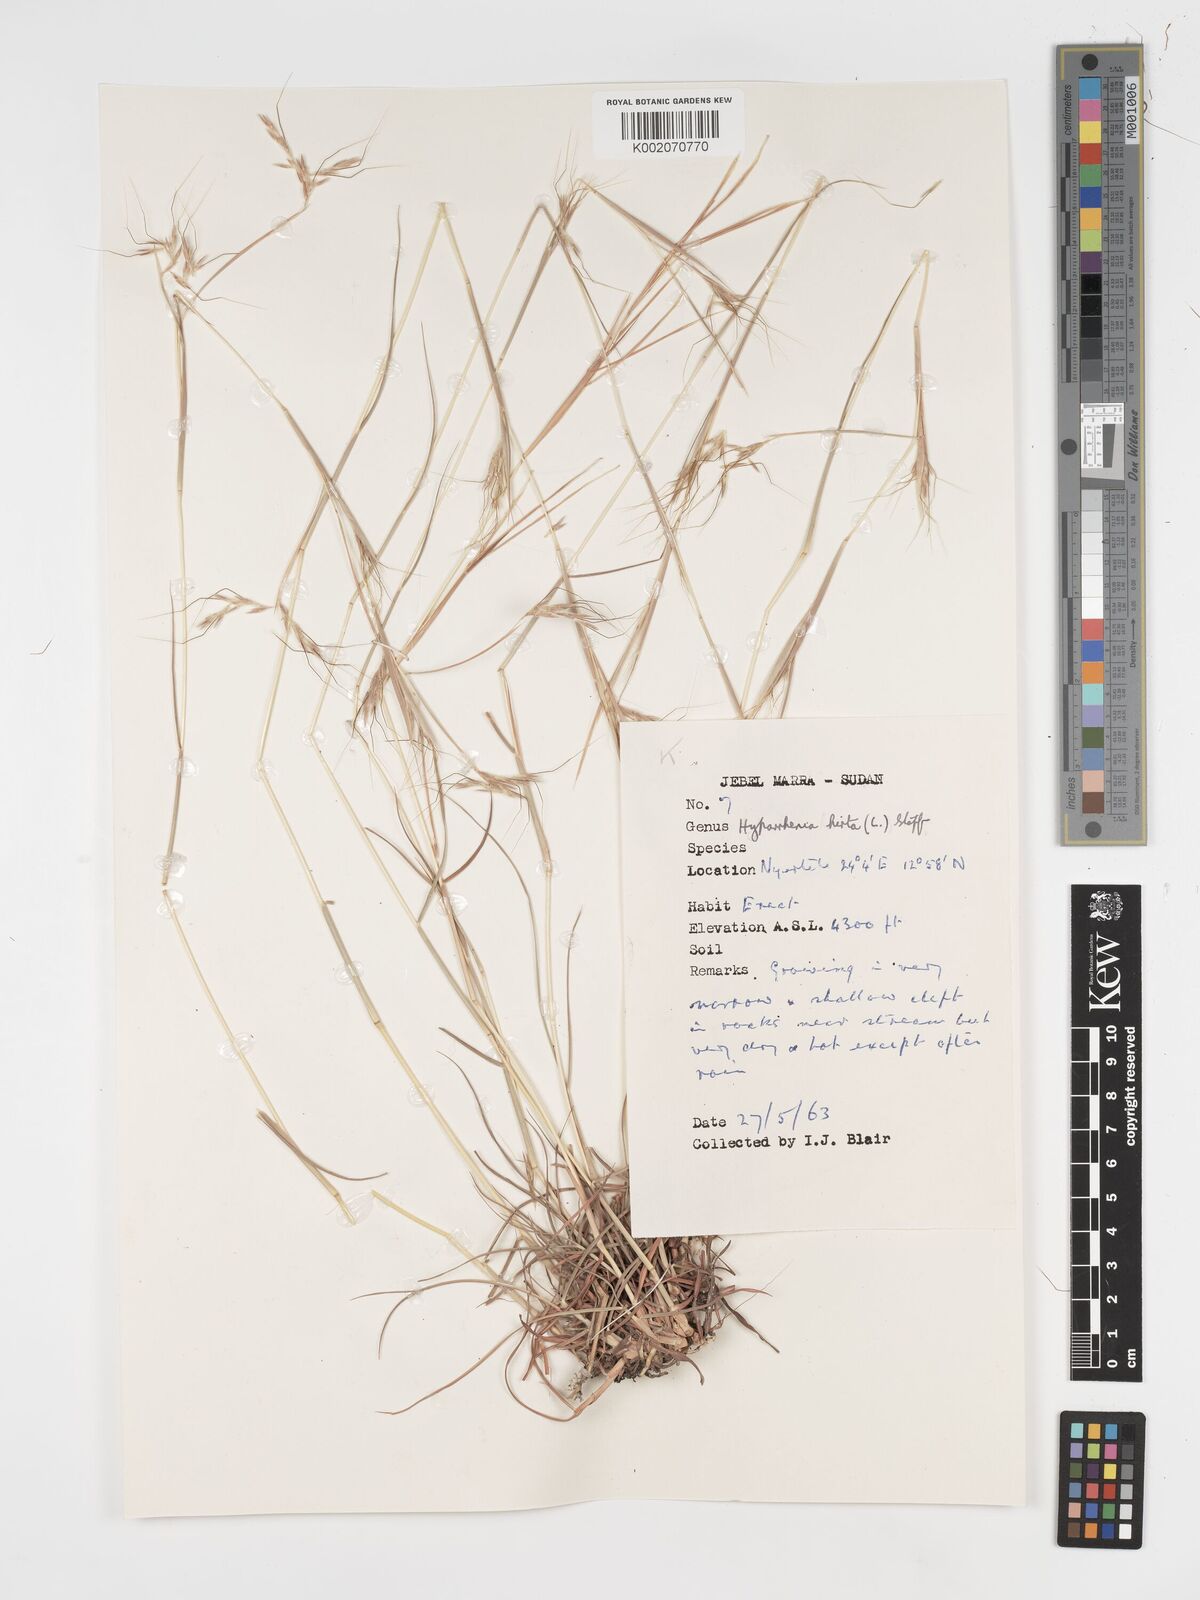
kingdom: Plantae
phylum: Tracheophyta
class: Liliopsida
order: Poales
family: Poaceae
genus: Hyparrhenia
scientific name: Hyparrhenia hirta
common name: Thatching grass
